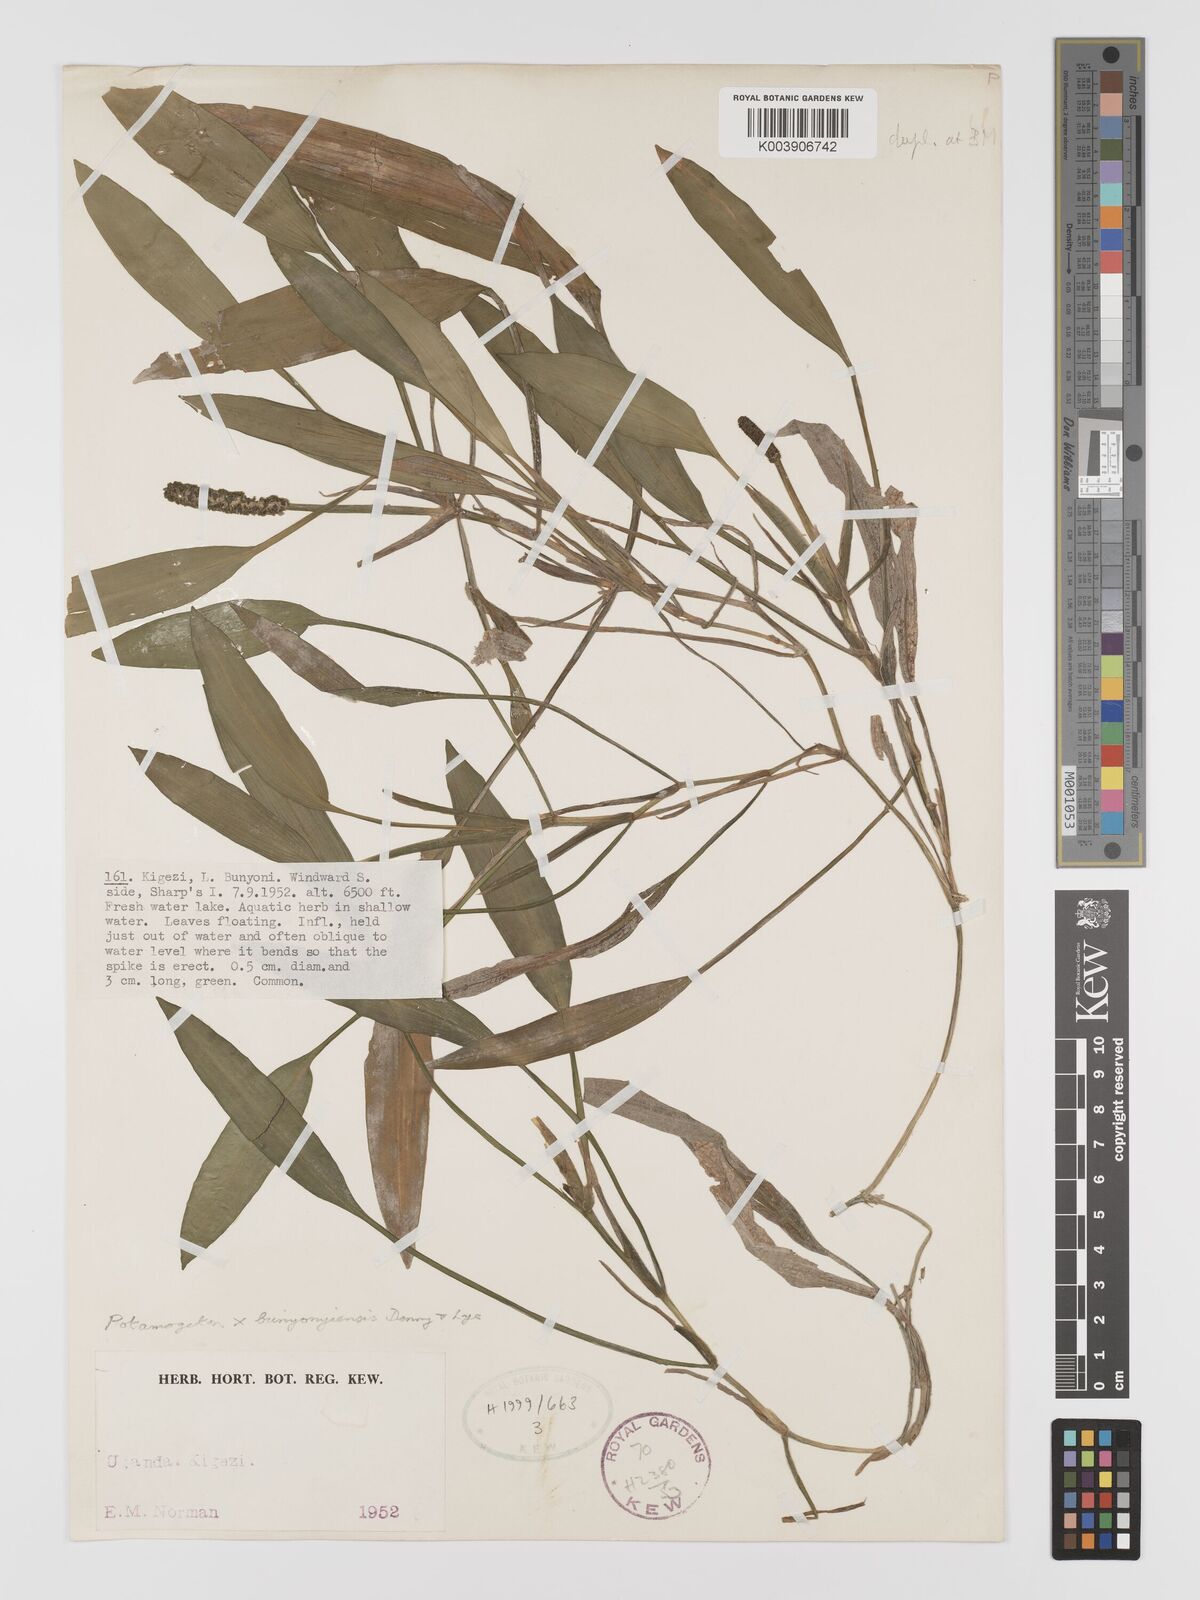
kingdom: Plantae
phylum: Tracheophyta
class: Liliopsida
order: Alismatales
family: Potamogetonaceae
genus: Potamogeton
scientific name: Potamogeton schweinfurthii
